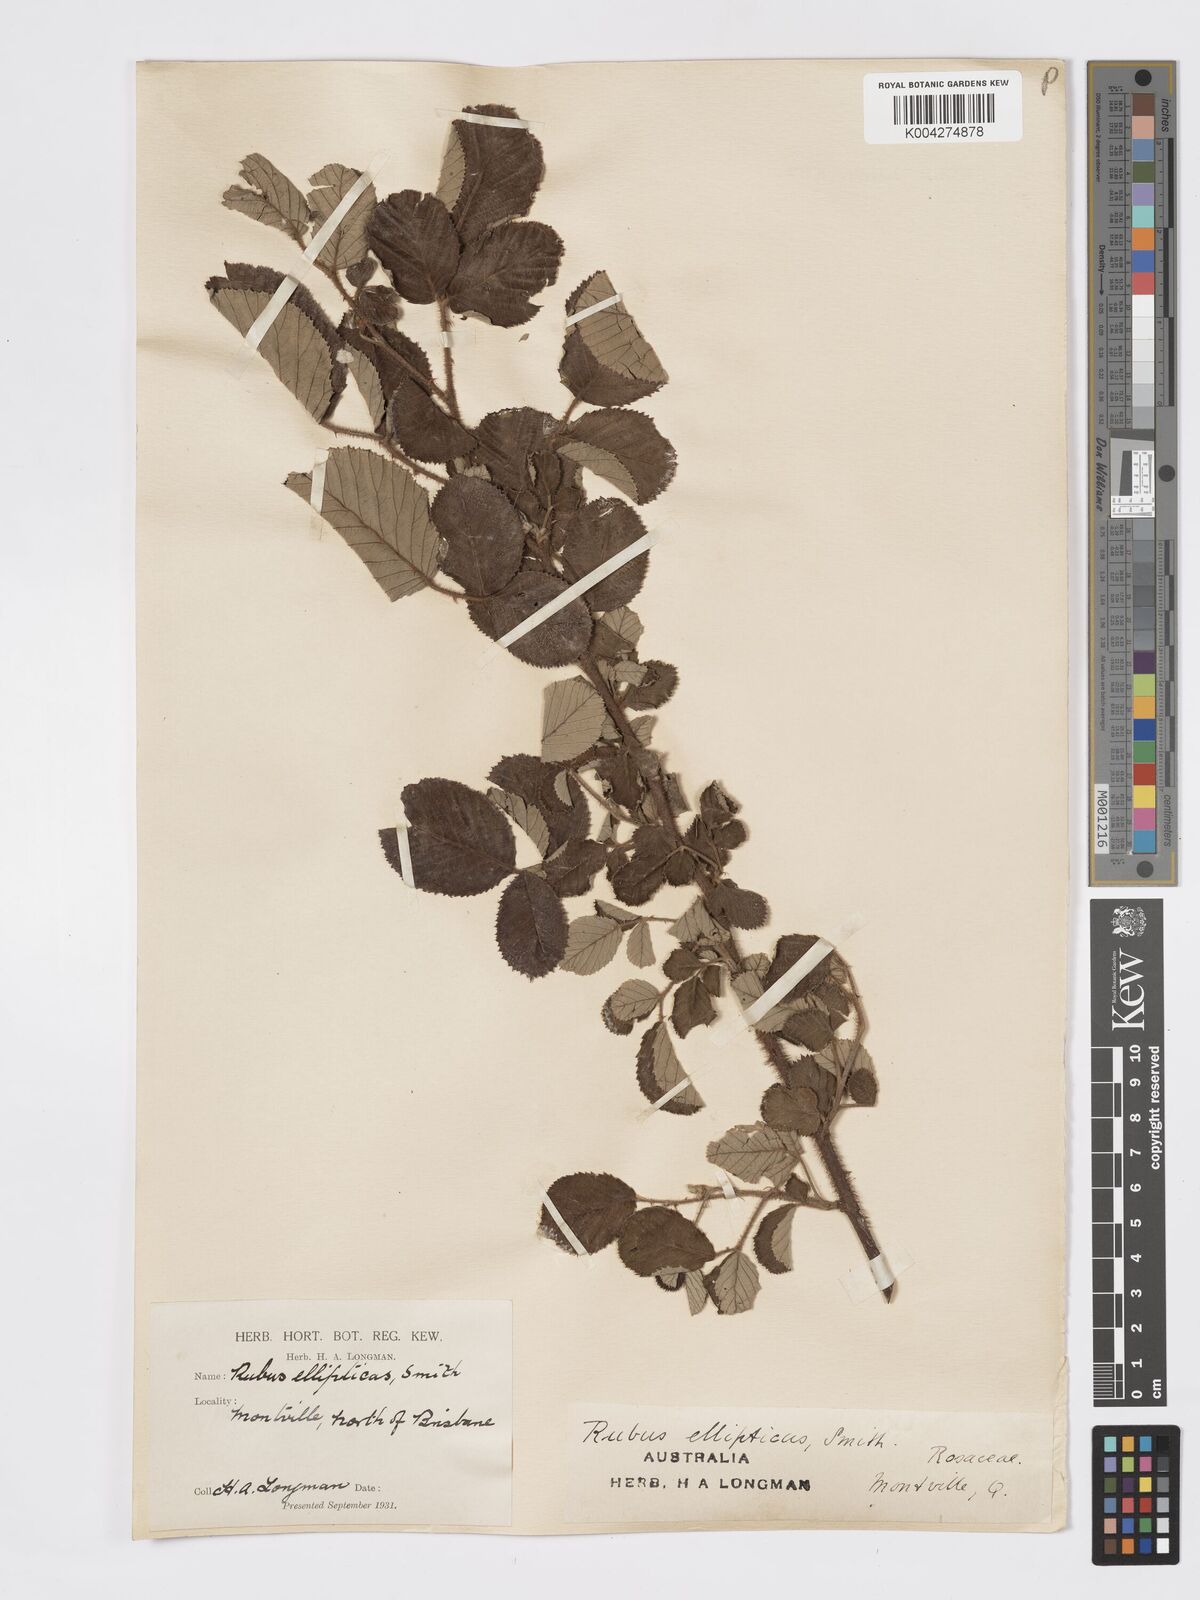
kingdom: Plantae
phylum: Tracheophyta
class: Magnoliopsida
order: Rosales
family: Rosaceae
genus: Rubus
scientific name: Rubus ellipticus
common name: Cheeseberry
